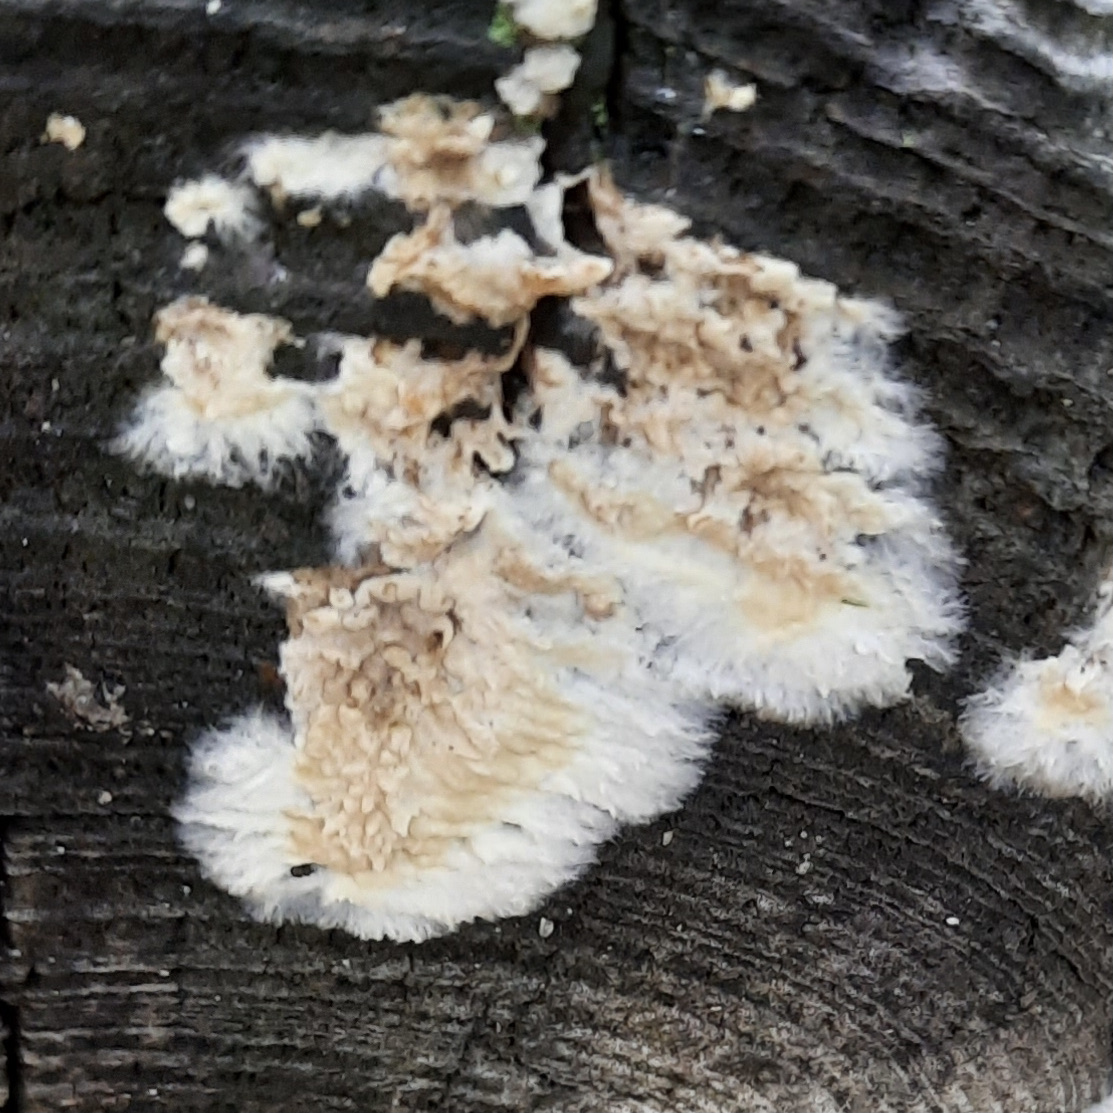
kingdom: Fungi
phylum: Basidiomycota
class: Agaricomycetes
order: Corticiales
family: Corticiaceae
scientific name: Corticiaceae
